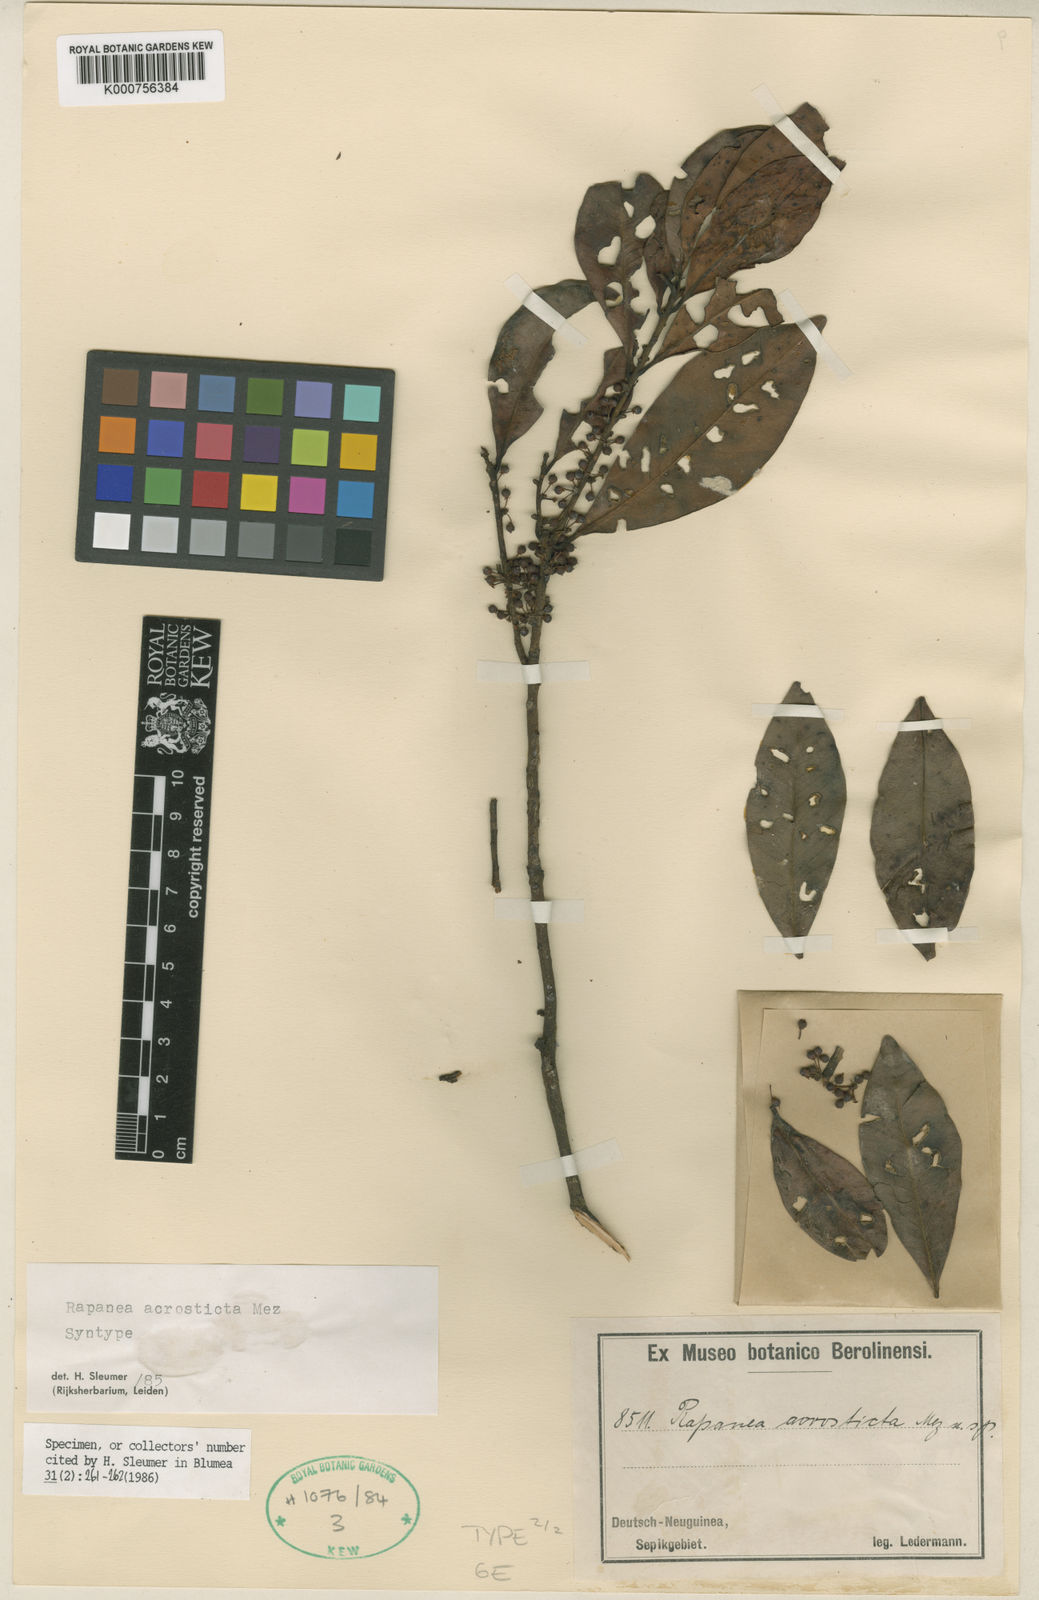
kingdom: Plantae
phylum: Tracheophyta
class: Magnoliopsida
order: Ericales
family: Primulaceae
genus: Myrsine
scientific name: Myrsine
